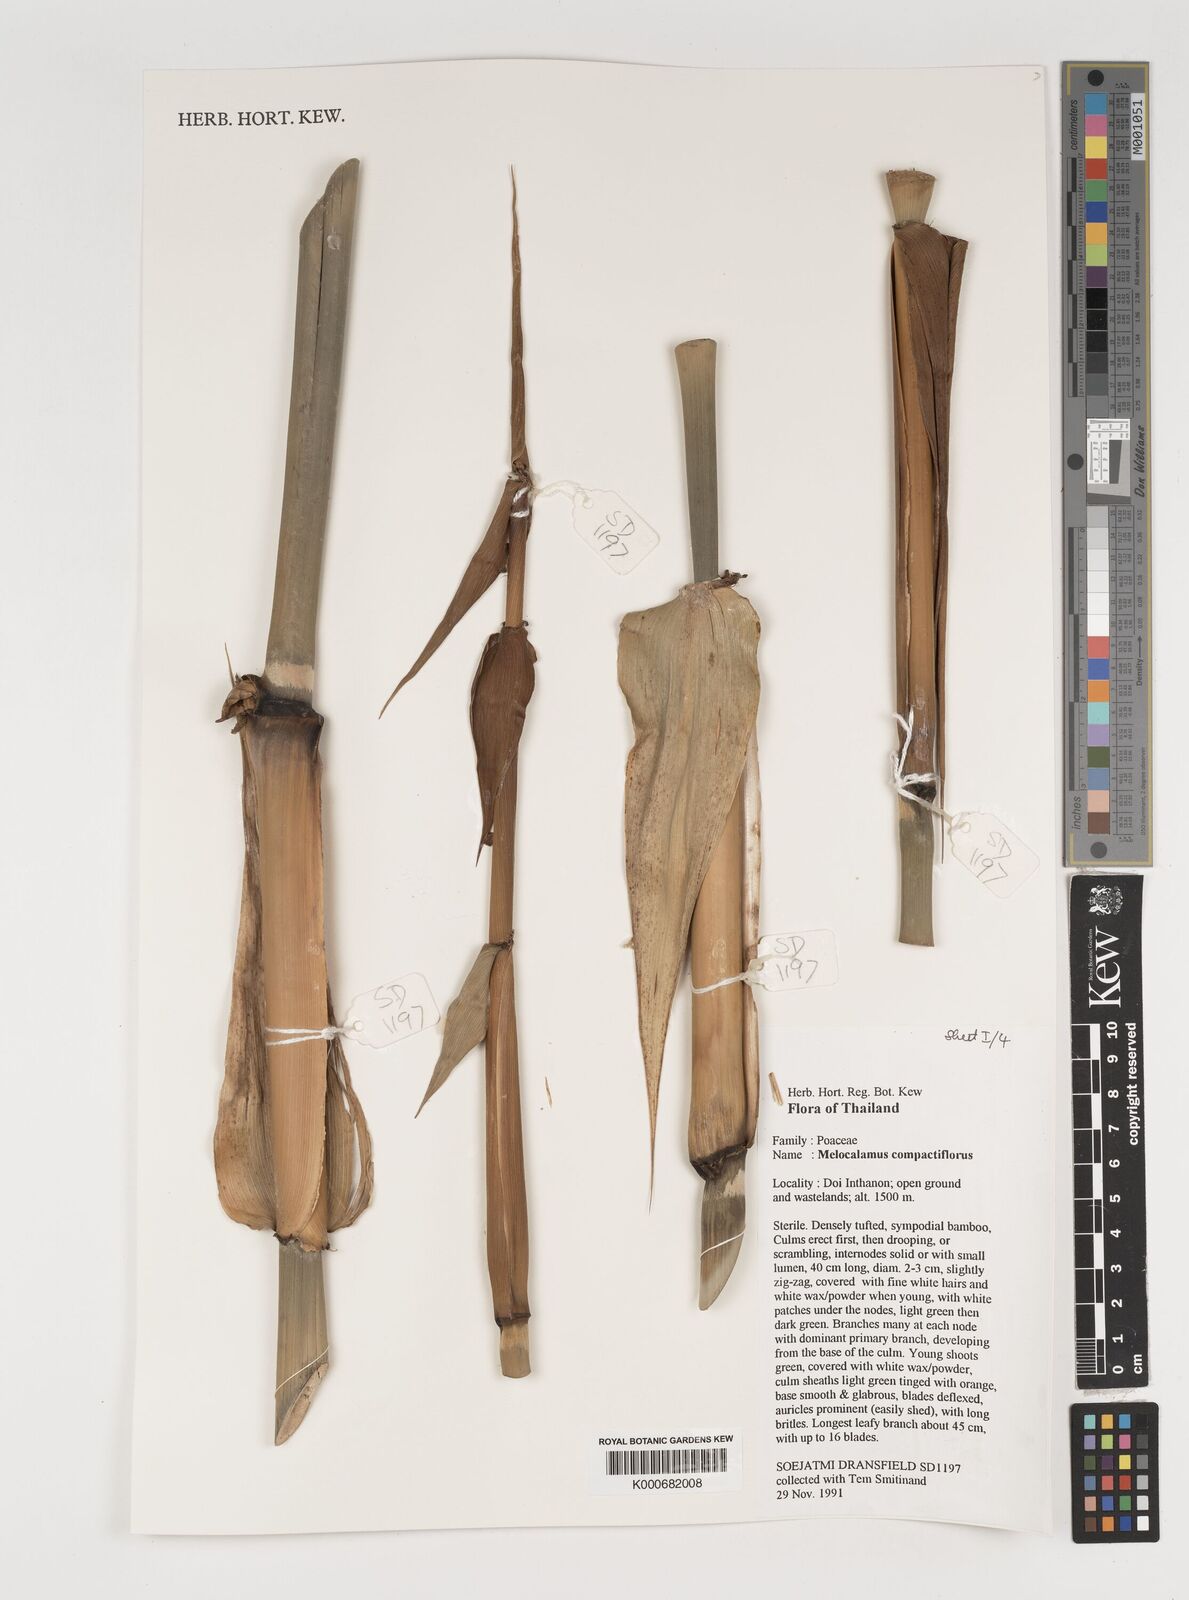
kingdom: Plantae
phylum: Tracheophyta
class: Liliopsida
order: Poales
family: Poaceae
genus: Melocalamus
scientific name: Melocalamus compactiflorus
